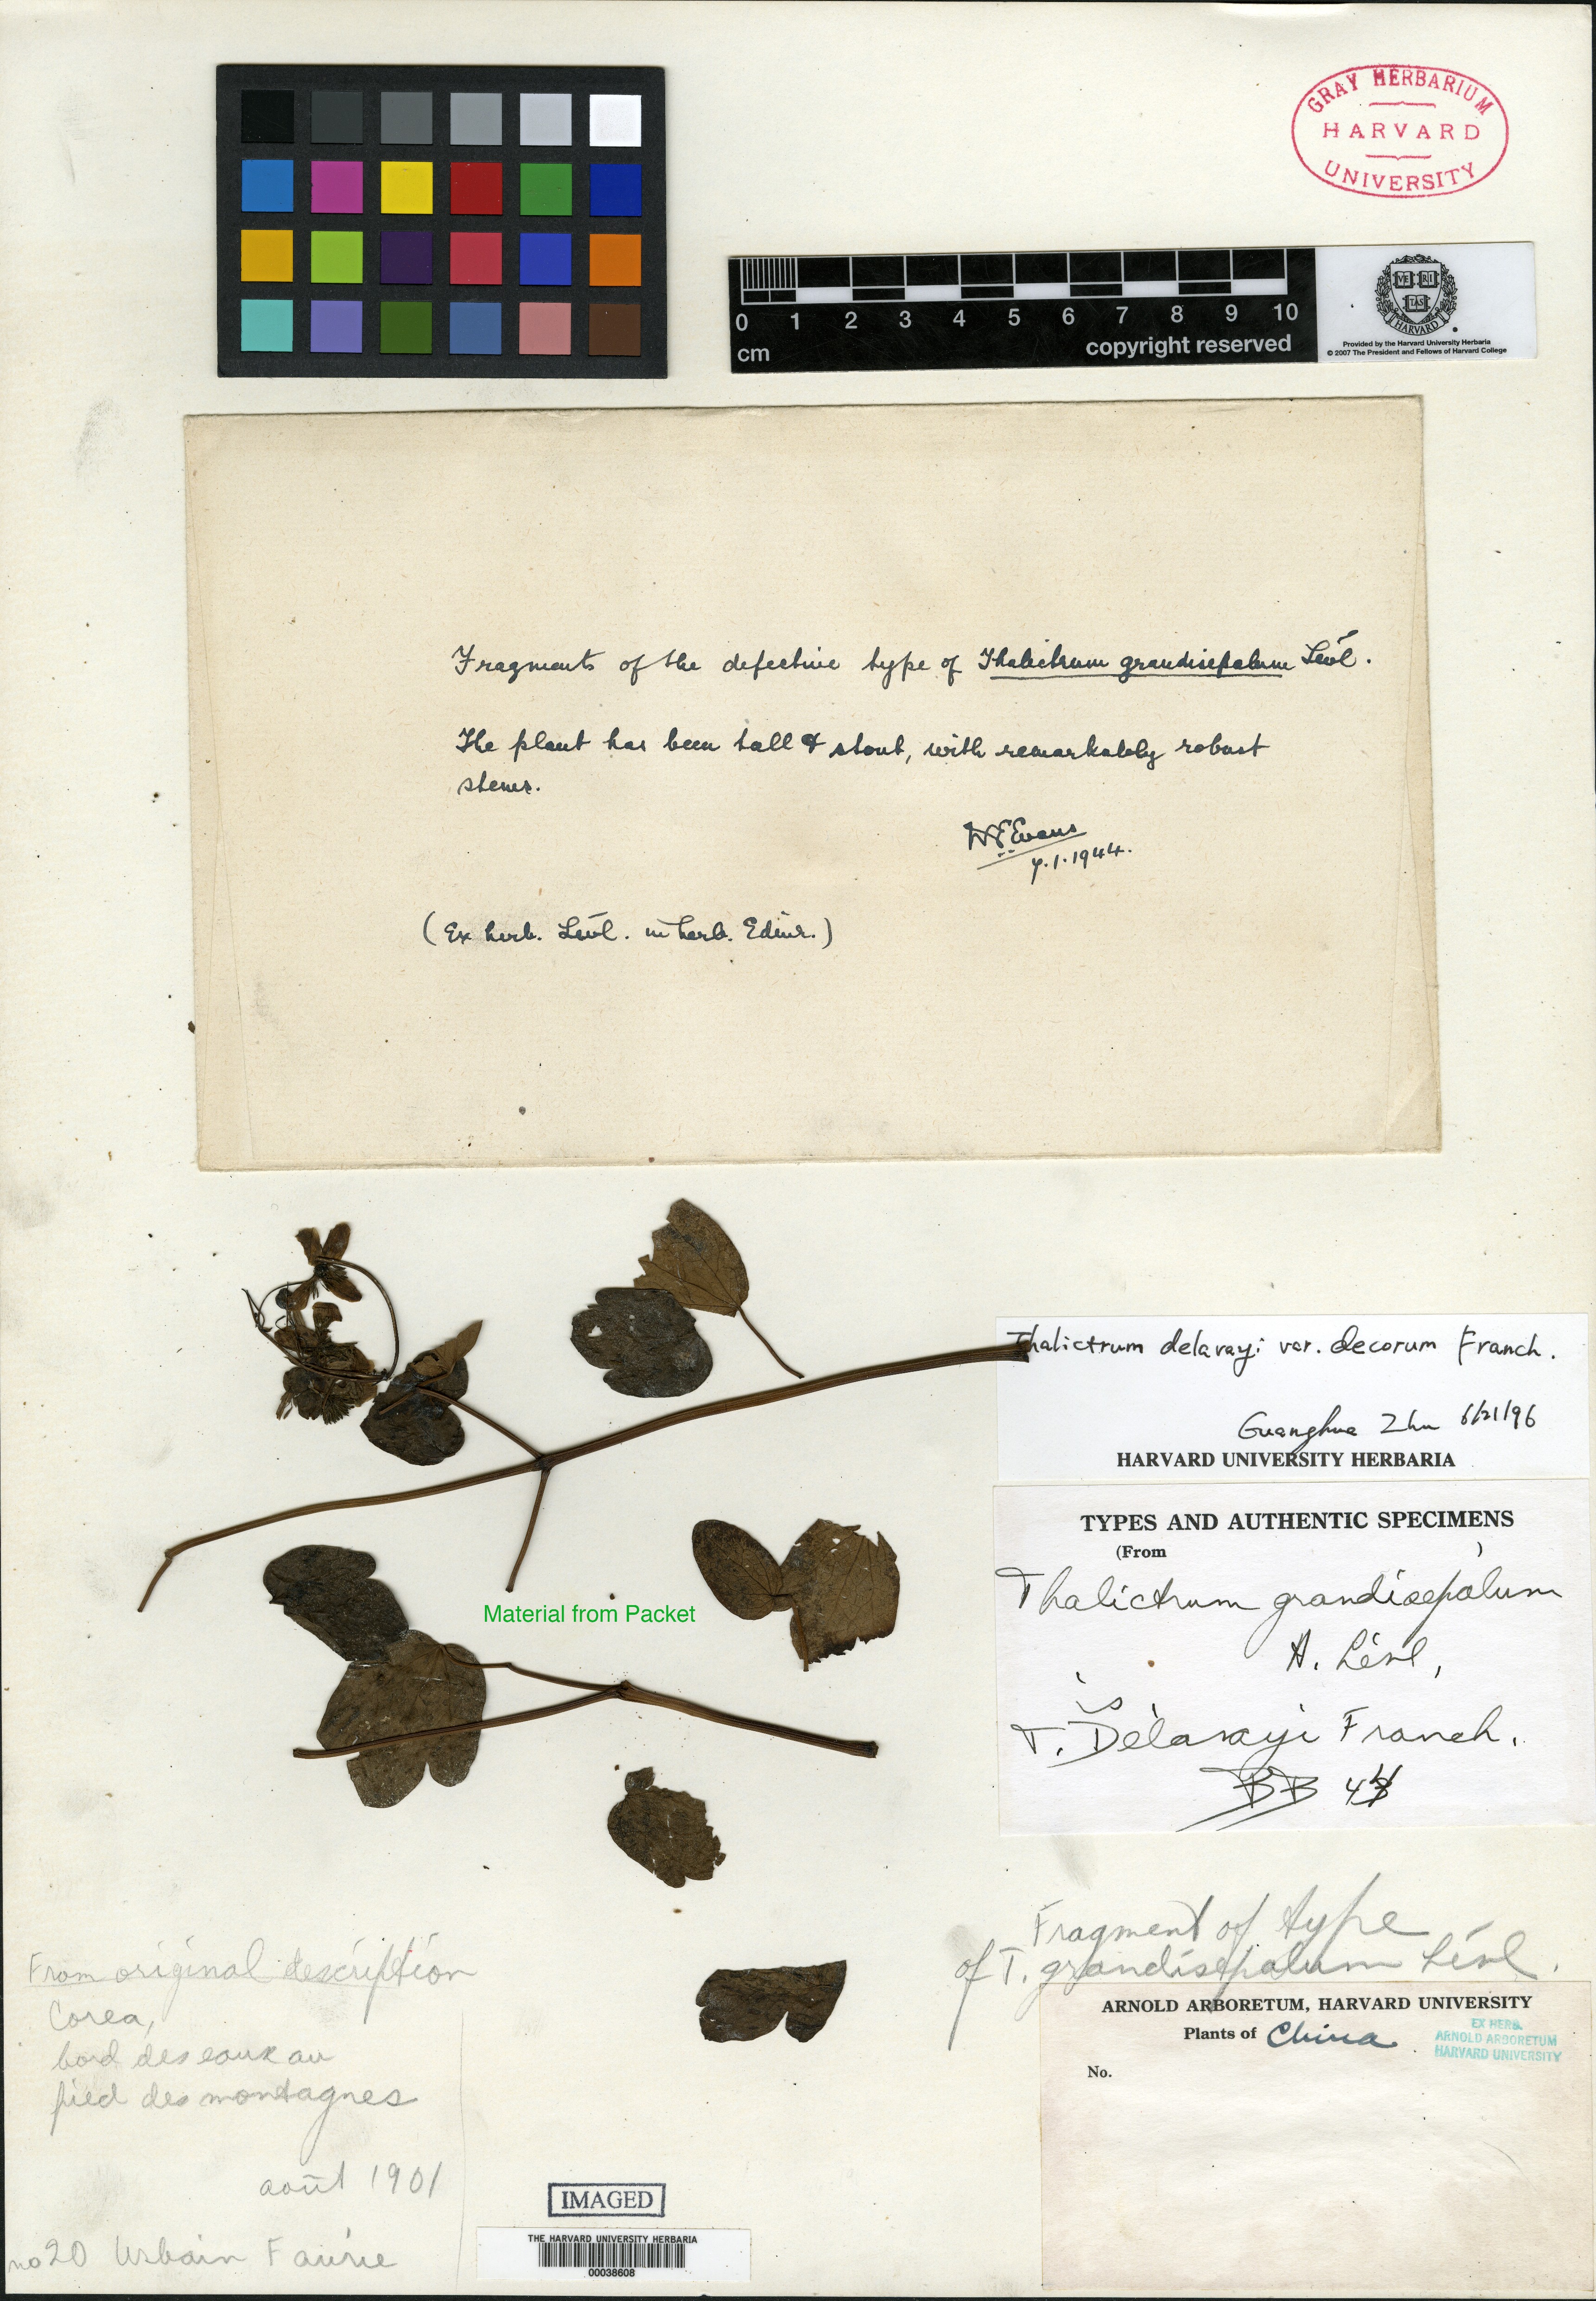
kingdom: Plantae
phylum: Tracheophyta
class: Magnoliopsida
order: Ranunculales
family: Ranunculaceae
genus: Thalictrum
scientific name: Thalictrum rochebrunnianum
